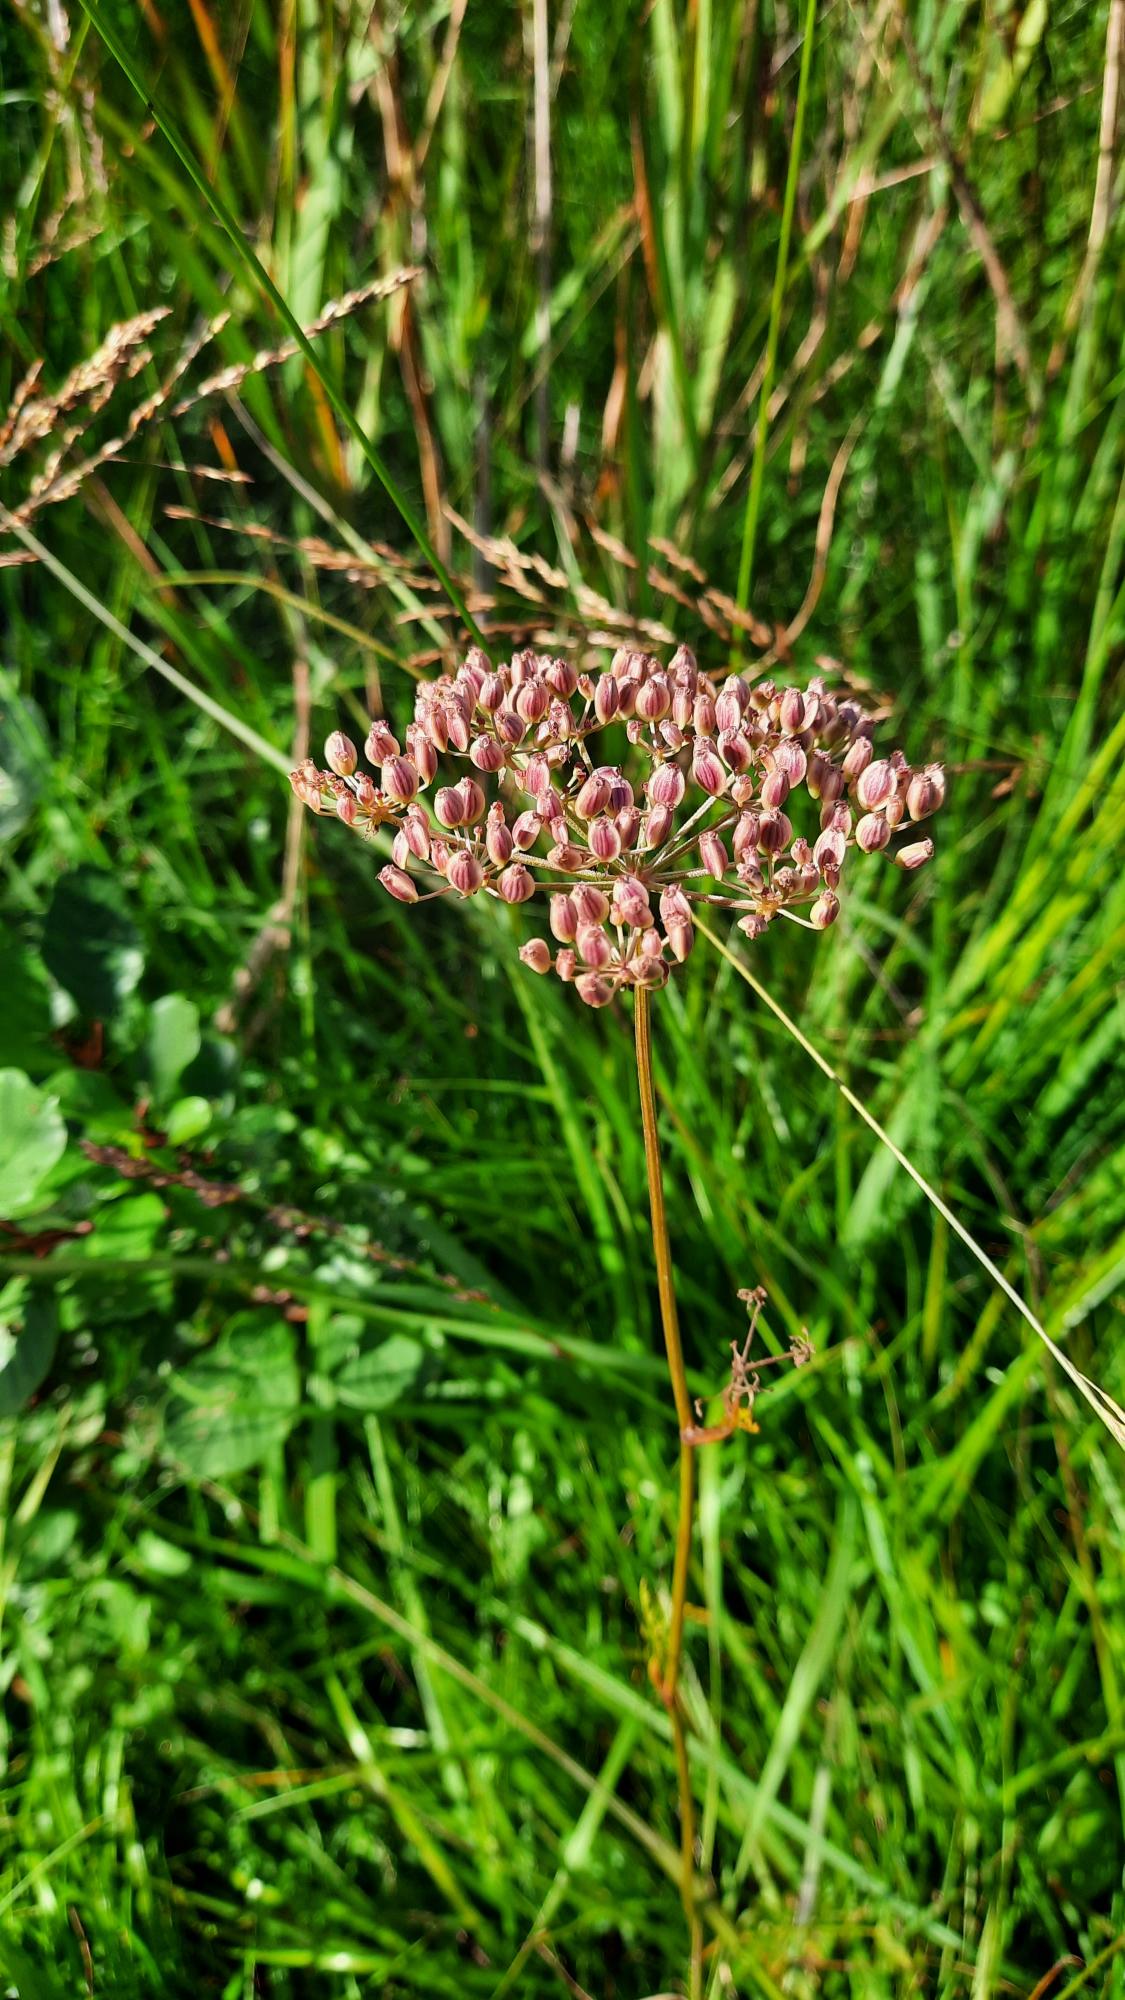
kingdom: Plantae
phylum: Tracheophyta
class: Magnoliopsida
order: Apiales
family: Apiaceae
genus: Thysselinum
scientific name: Thysselinum palustre
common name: Kær-svovlrod
